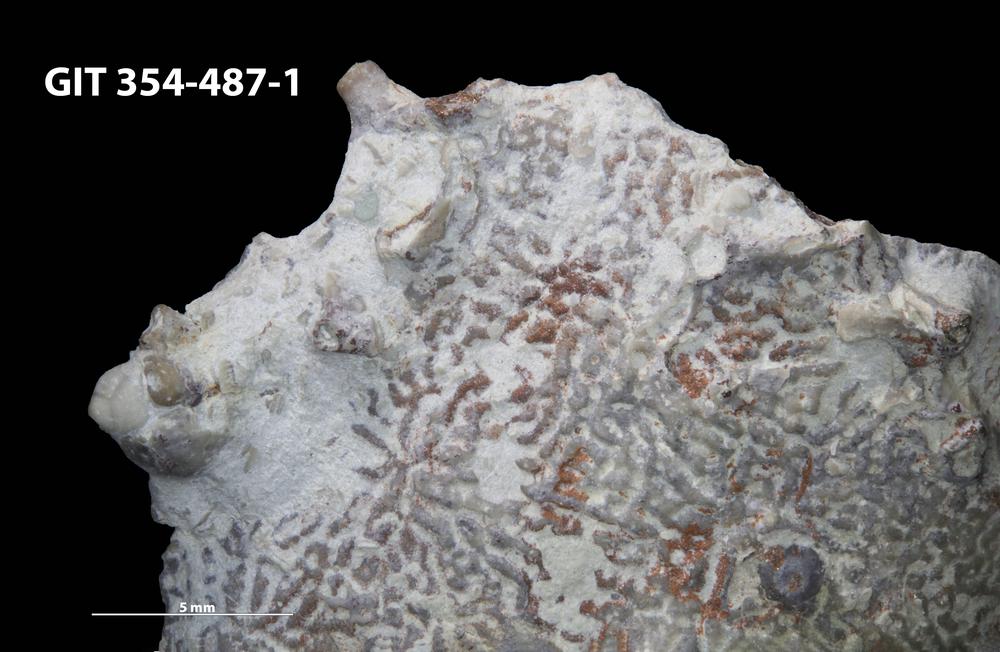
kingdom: Animalia
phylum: Cnidaria
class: Anthozoa
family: Auloporidae
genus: Aulopora
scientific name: Aulopora
